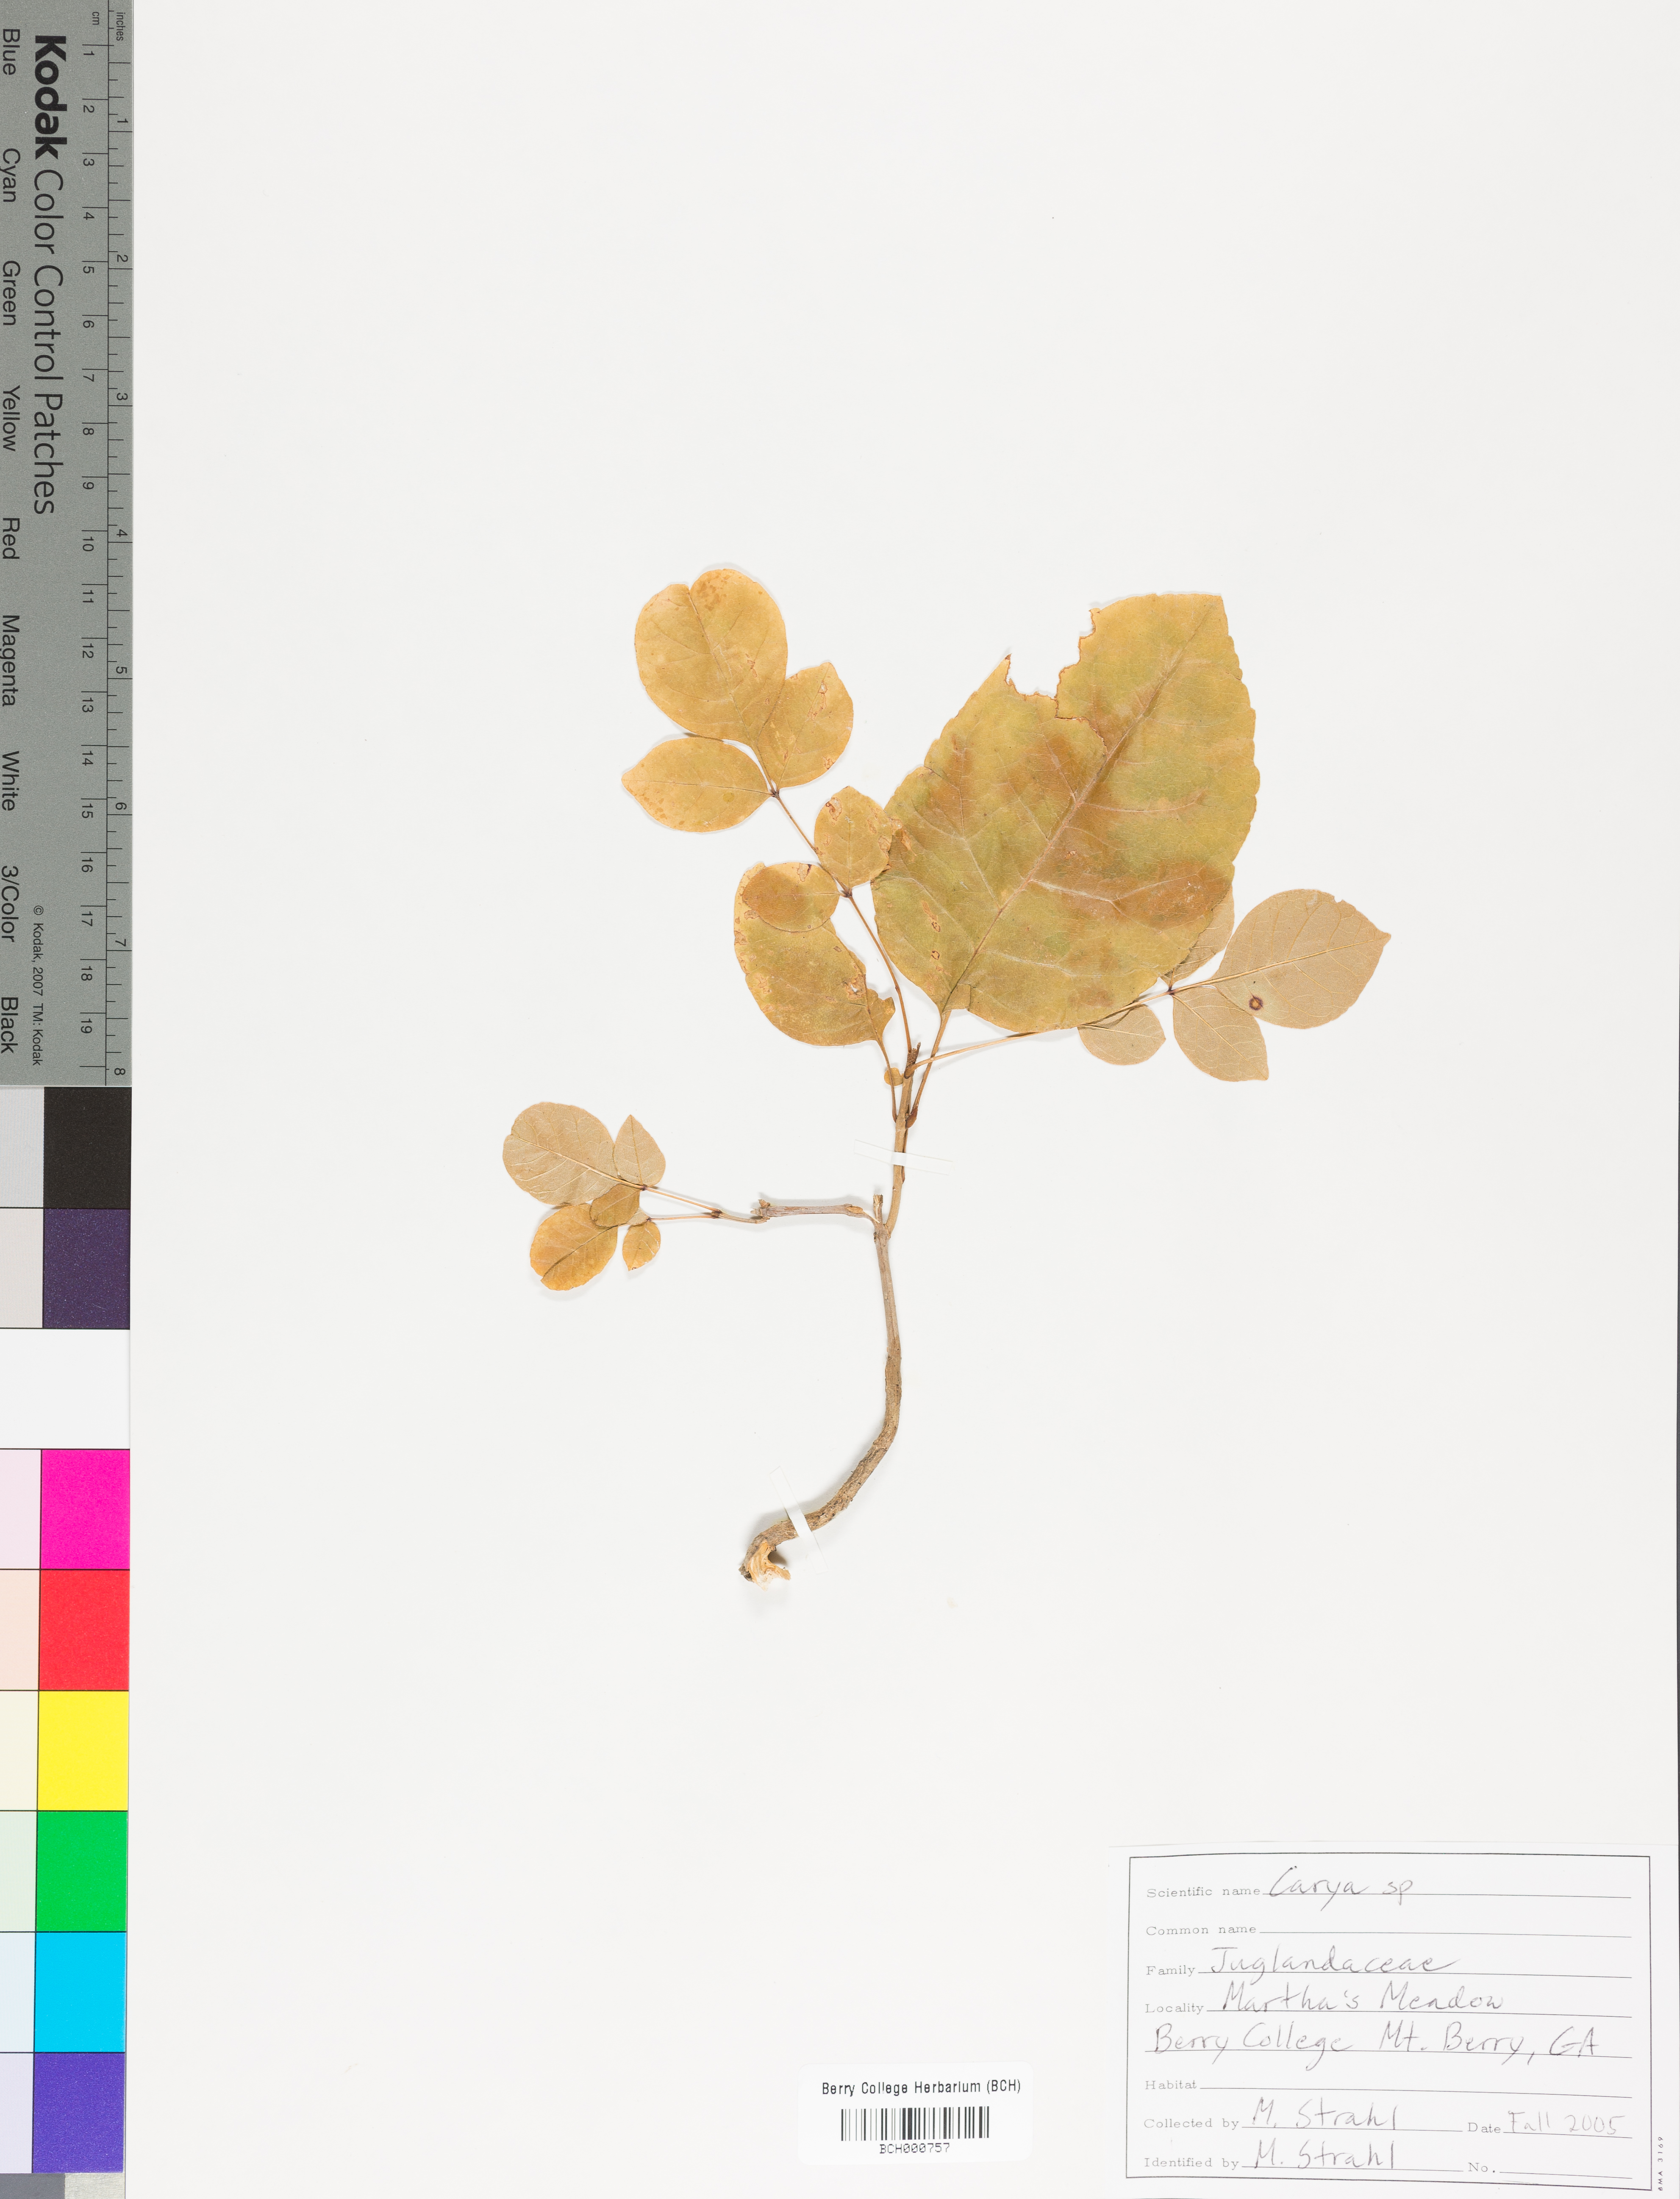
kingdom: Plantae
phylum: Tracheophyta
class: Magnoliopsida
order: Fagales
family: Juglandaceae
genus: Carya
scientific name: Carya
